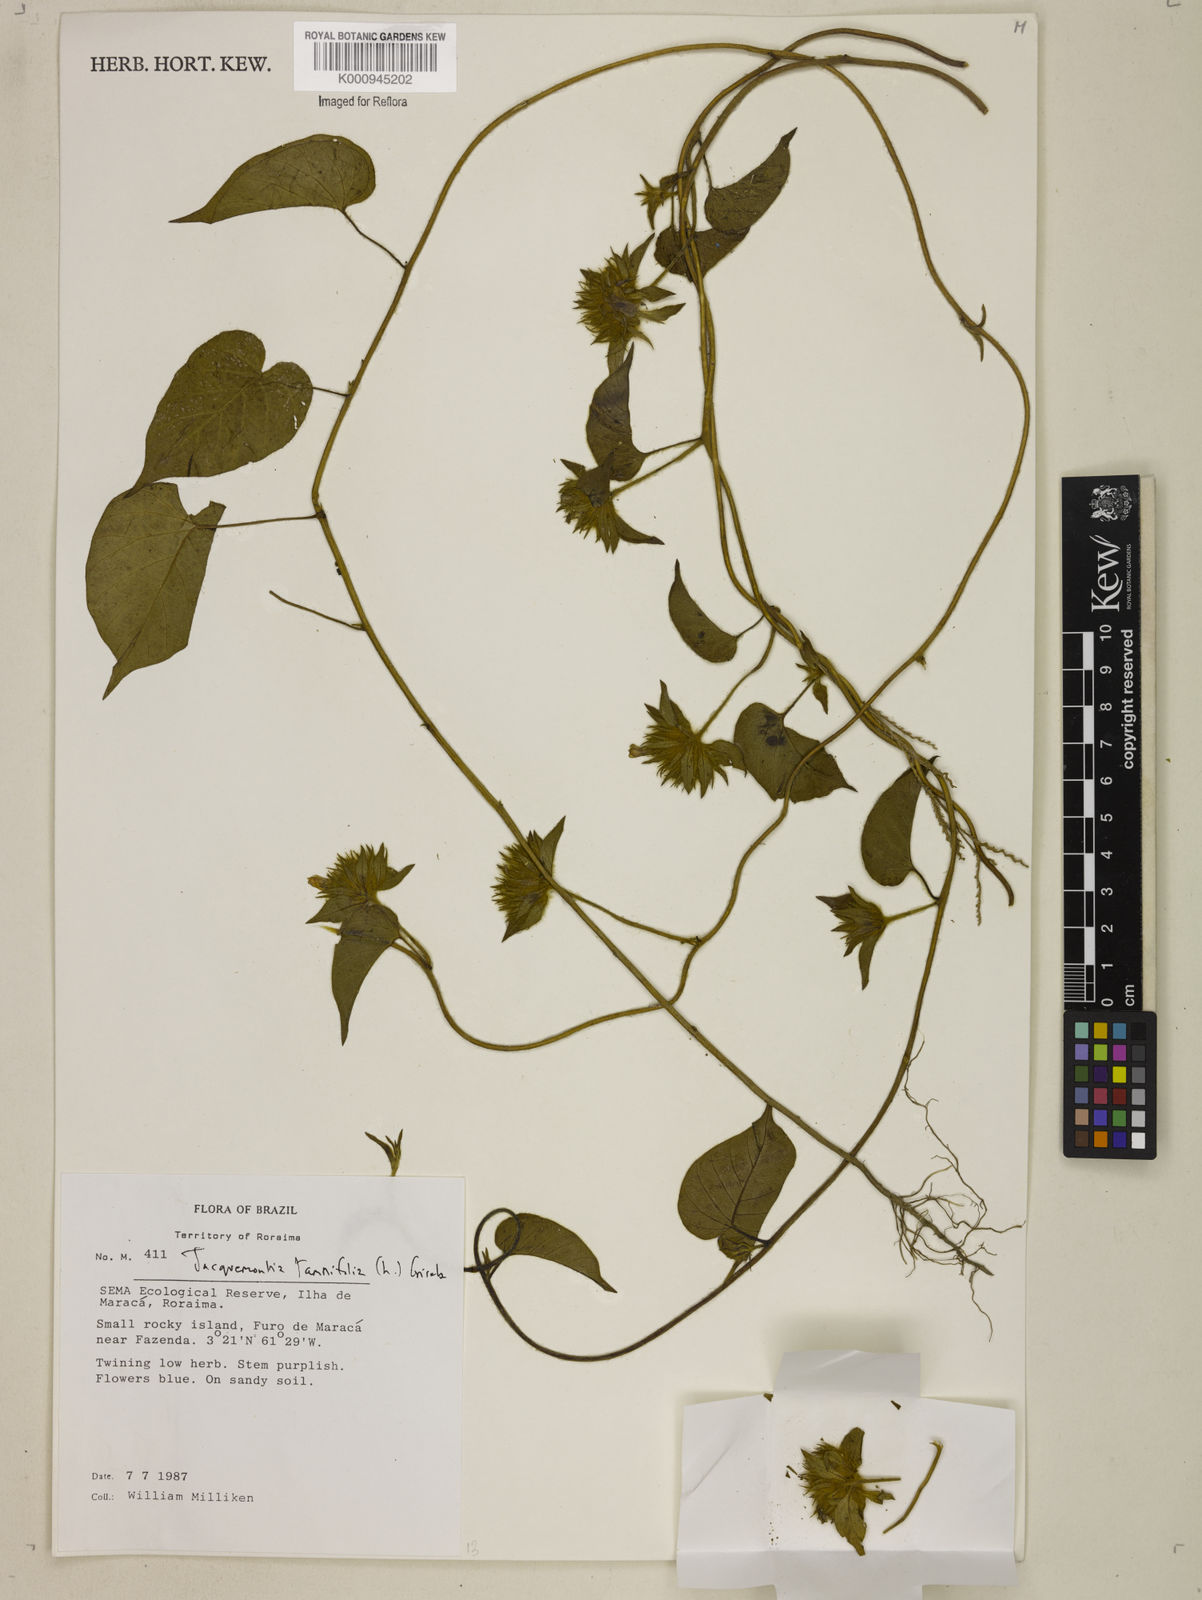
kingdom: Plantae
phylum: Tracheophyta
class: Magnoliopsida
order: Solanales
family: Convolvulaceae
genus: Jacquemontia
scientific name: Jacquemontia tamnifolia
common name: Hairy clustervine
